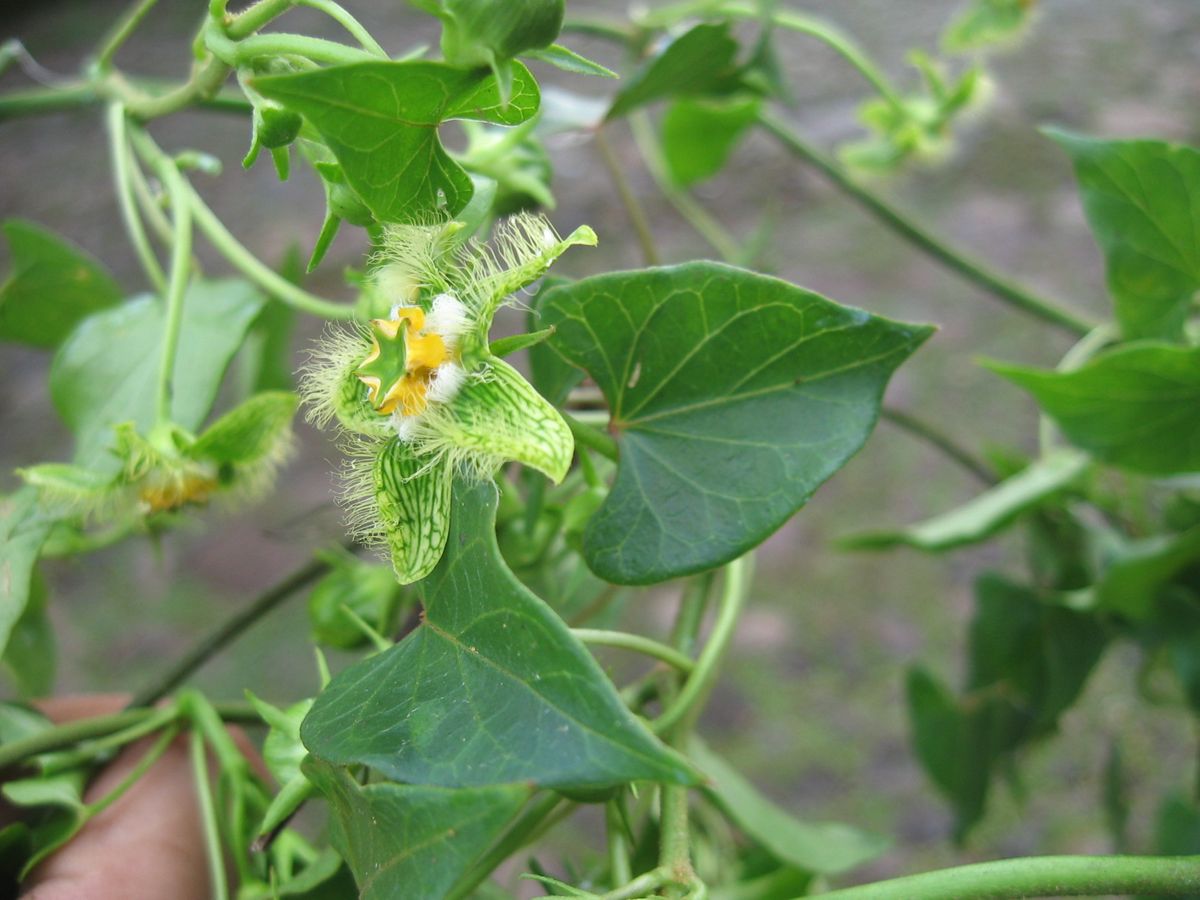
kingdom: Plantae
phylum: Tracheophyta
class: Magnoliopsida
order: Gentianales
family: Apocynaceae
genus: Gonolobus
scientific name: Gonolobus barbatus
